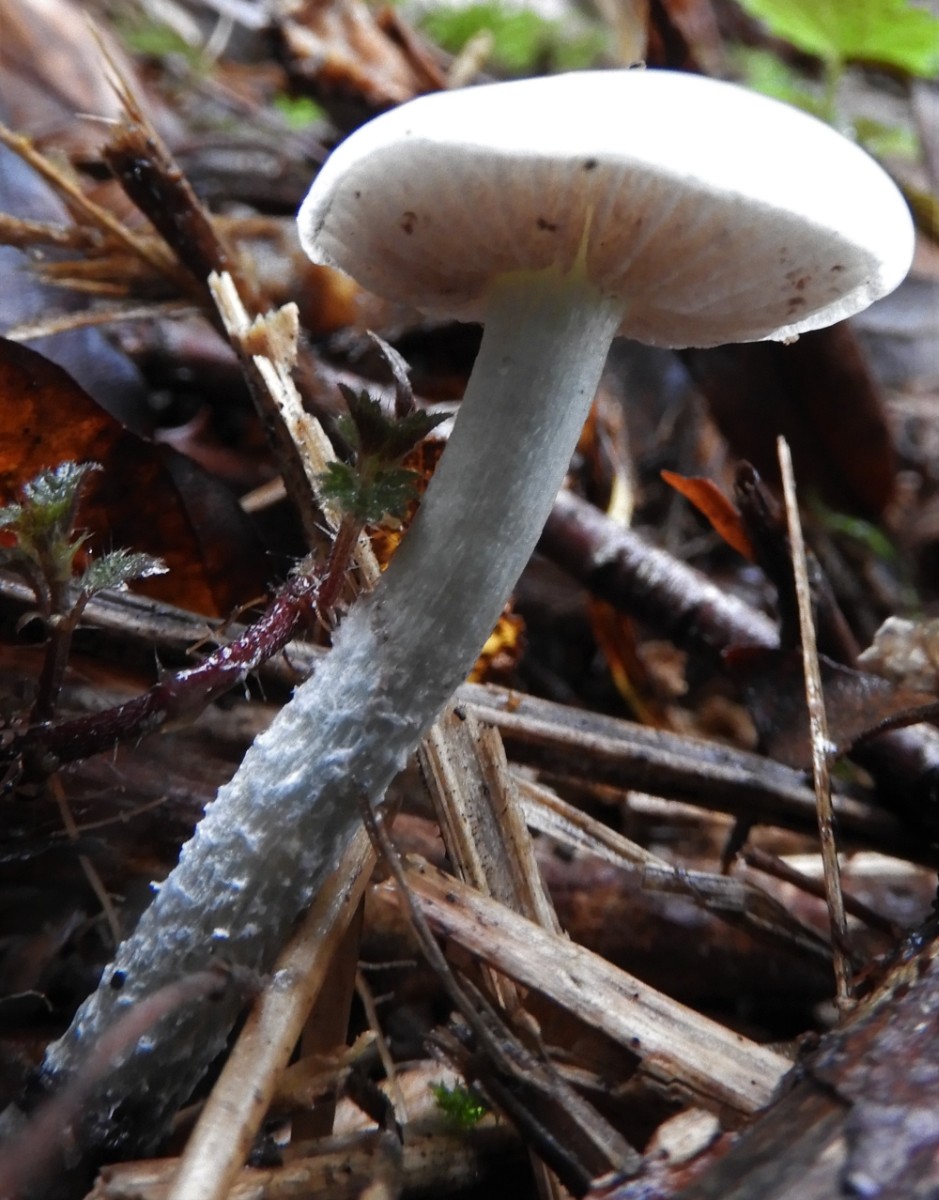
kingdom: Fungi
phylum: Basidiomycota
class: Agaricomycetes
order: Agaricales
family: Strophariaceae
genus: Stropharia
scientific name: Stropharia cyanea
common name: blågrøn bredblad
